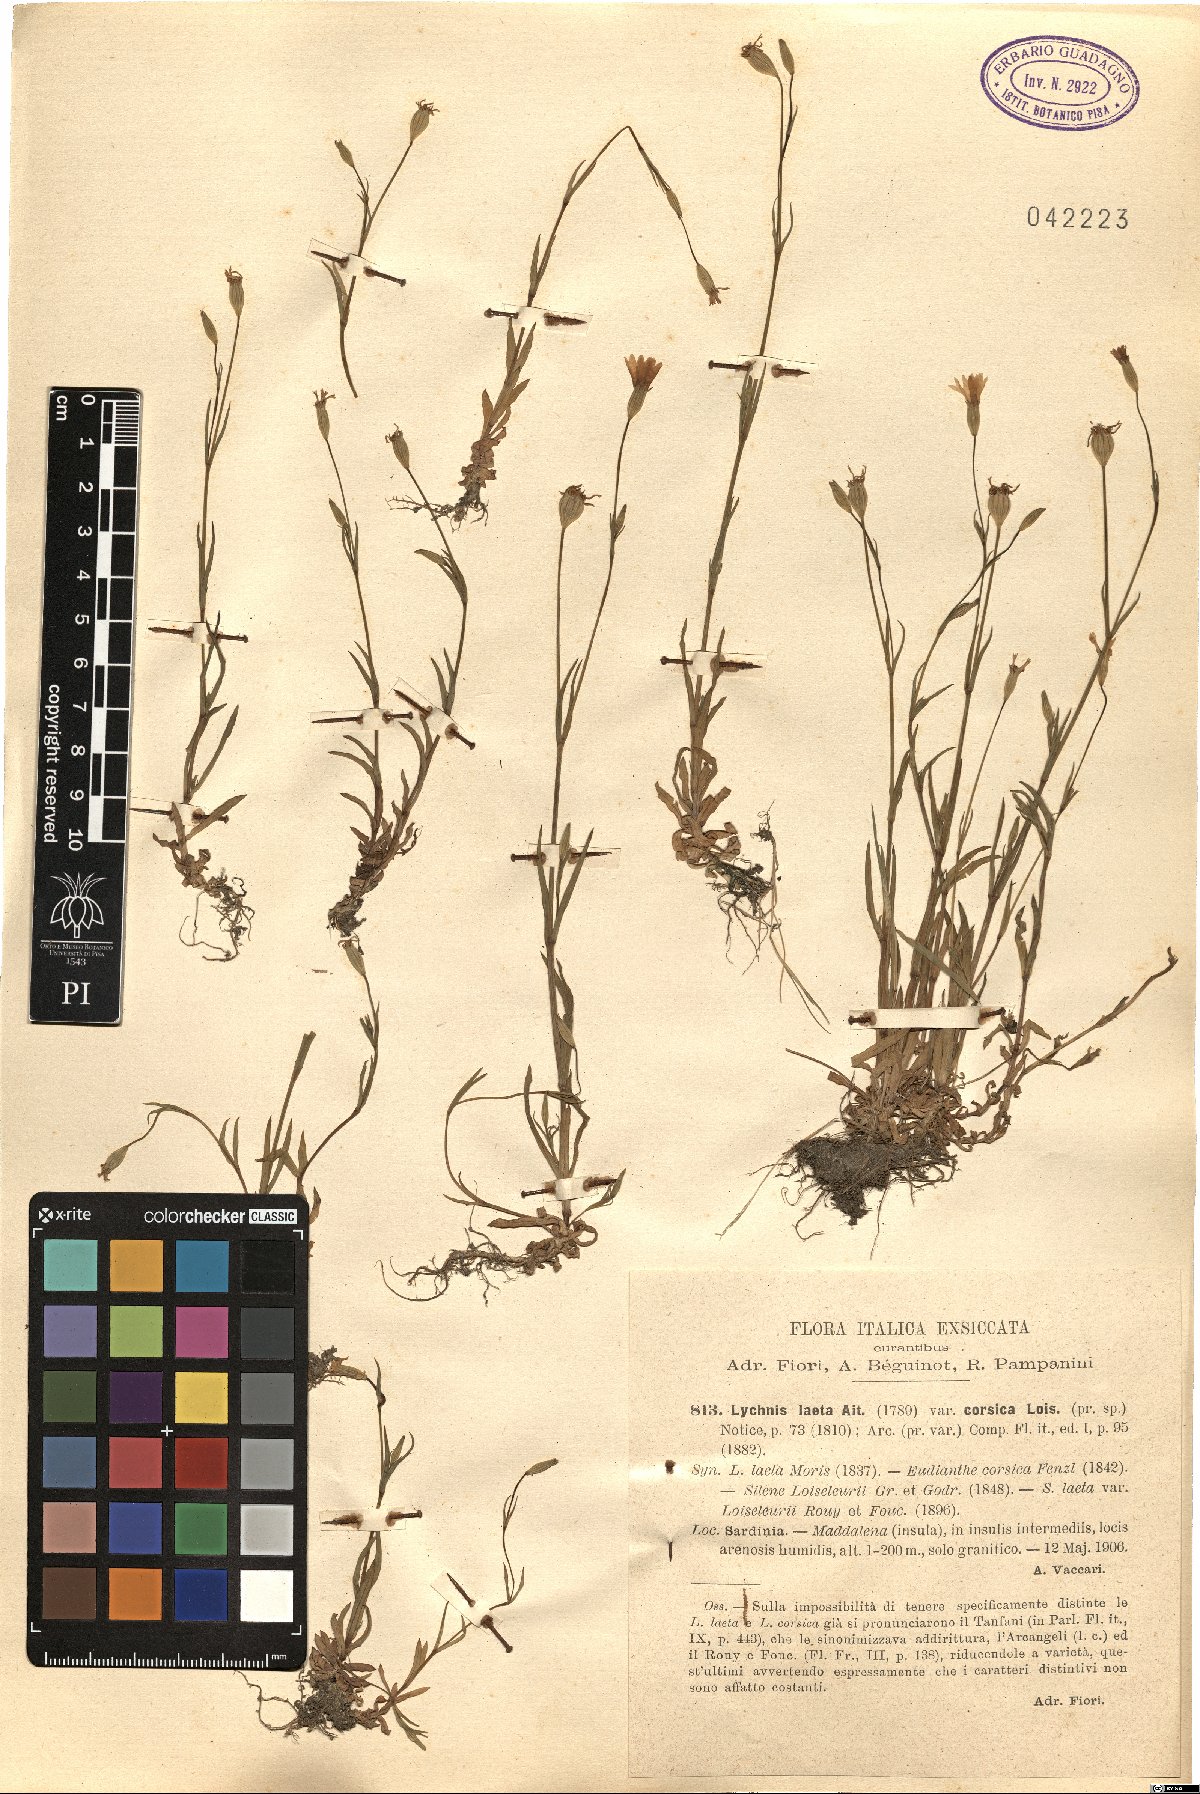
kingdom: Plantae
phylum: Tracheophyta
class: Magnoliopsida
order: Caryophyllales
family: Caryophyllaceae
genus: Eudianthe
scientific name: Eudianthe laeta
